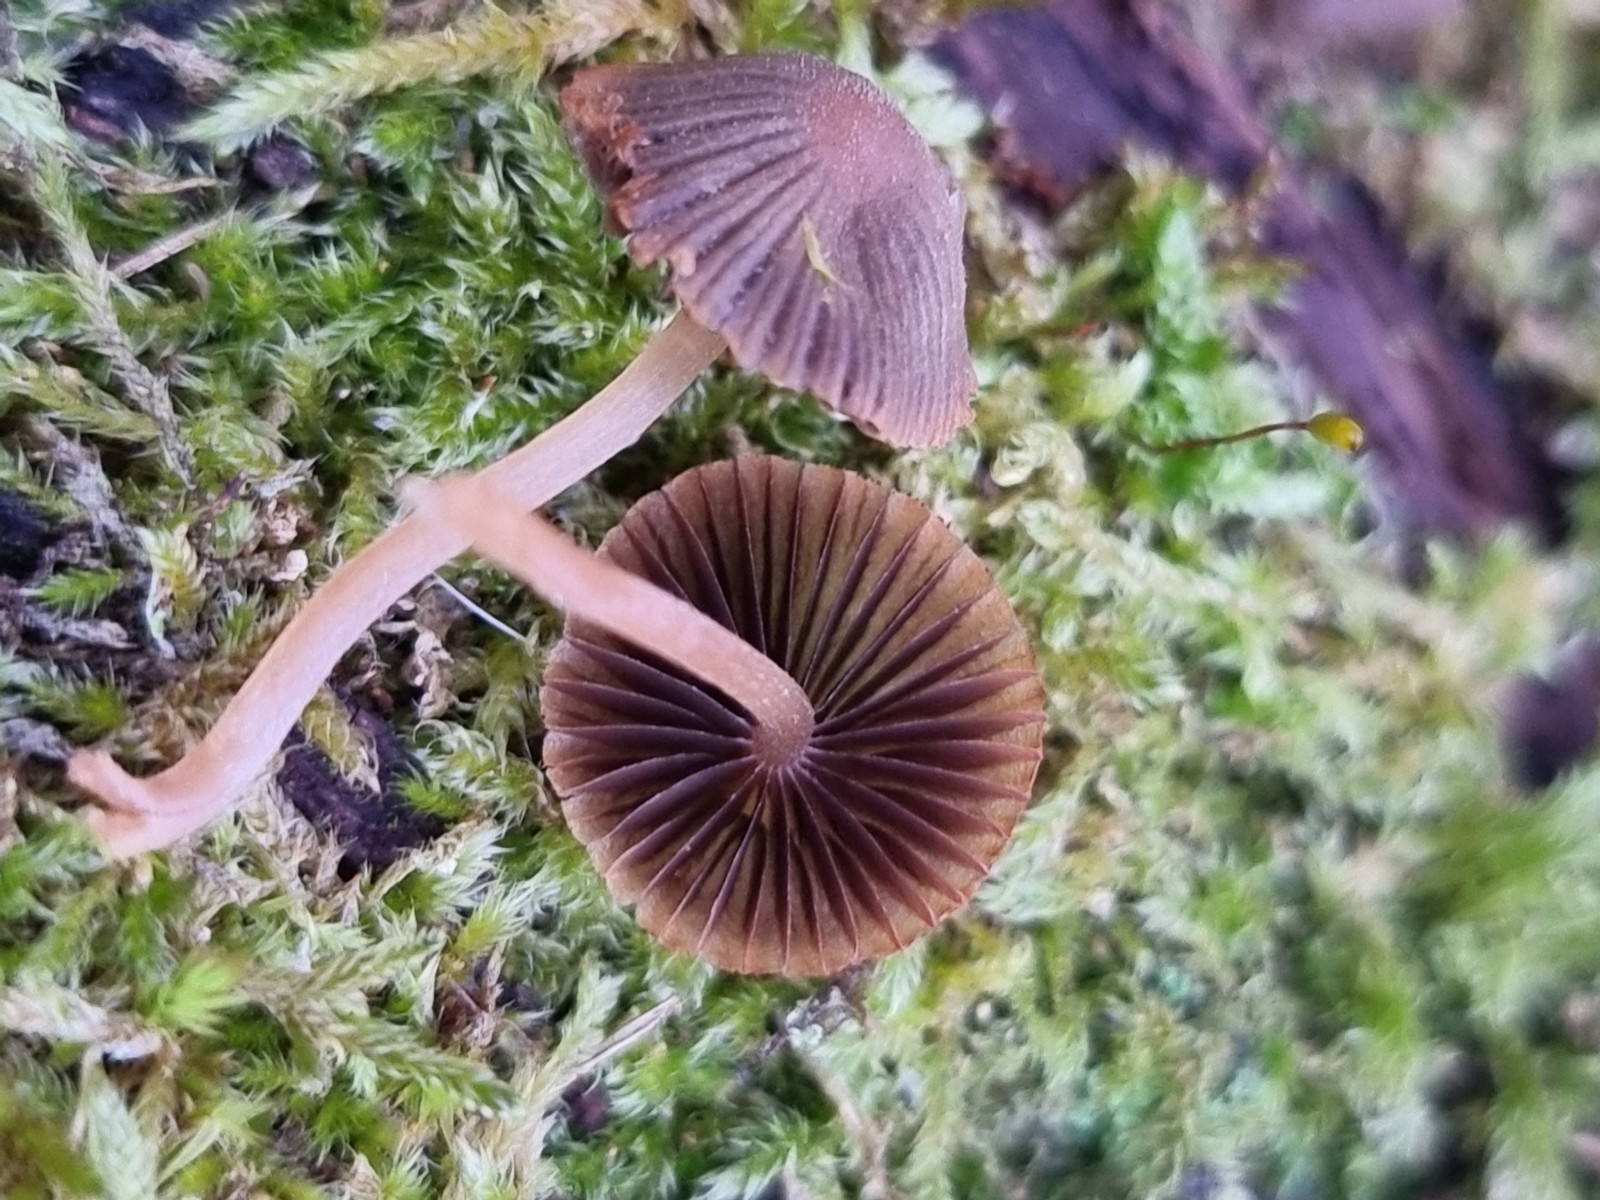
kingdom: Fungi
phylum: Basidiomycota
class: Agaricomycetes
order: Agaricales
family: Psathyrellaceae
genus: Coprinellus
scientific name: Coprinellus disseminatus
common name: bredsået blækhat
